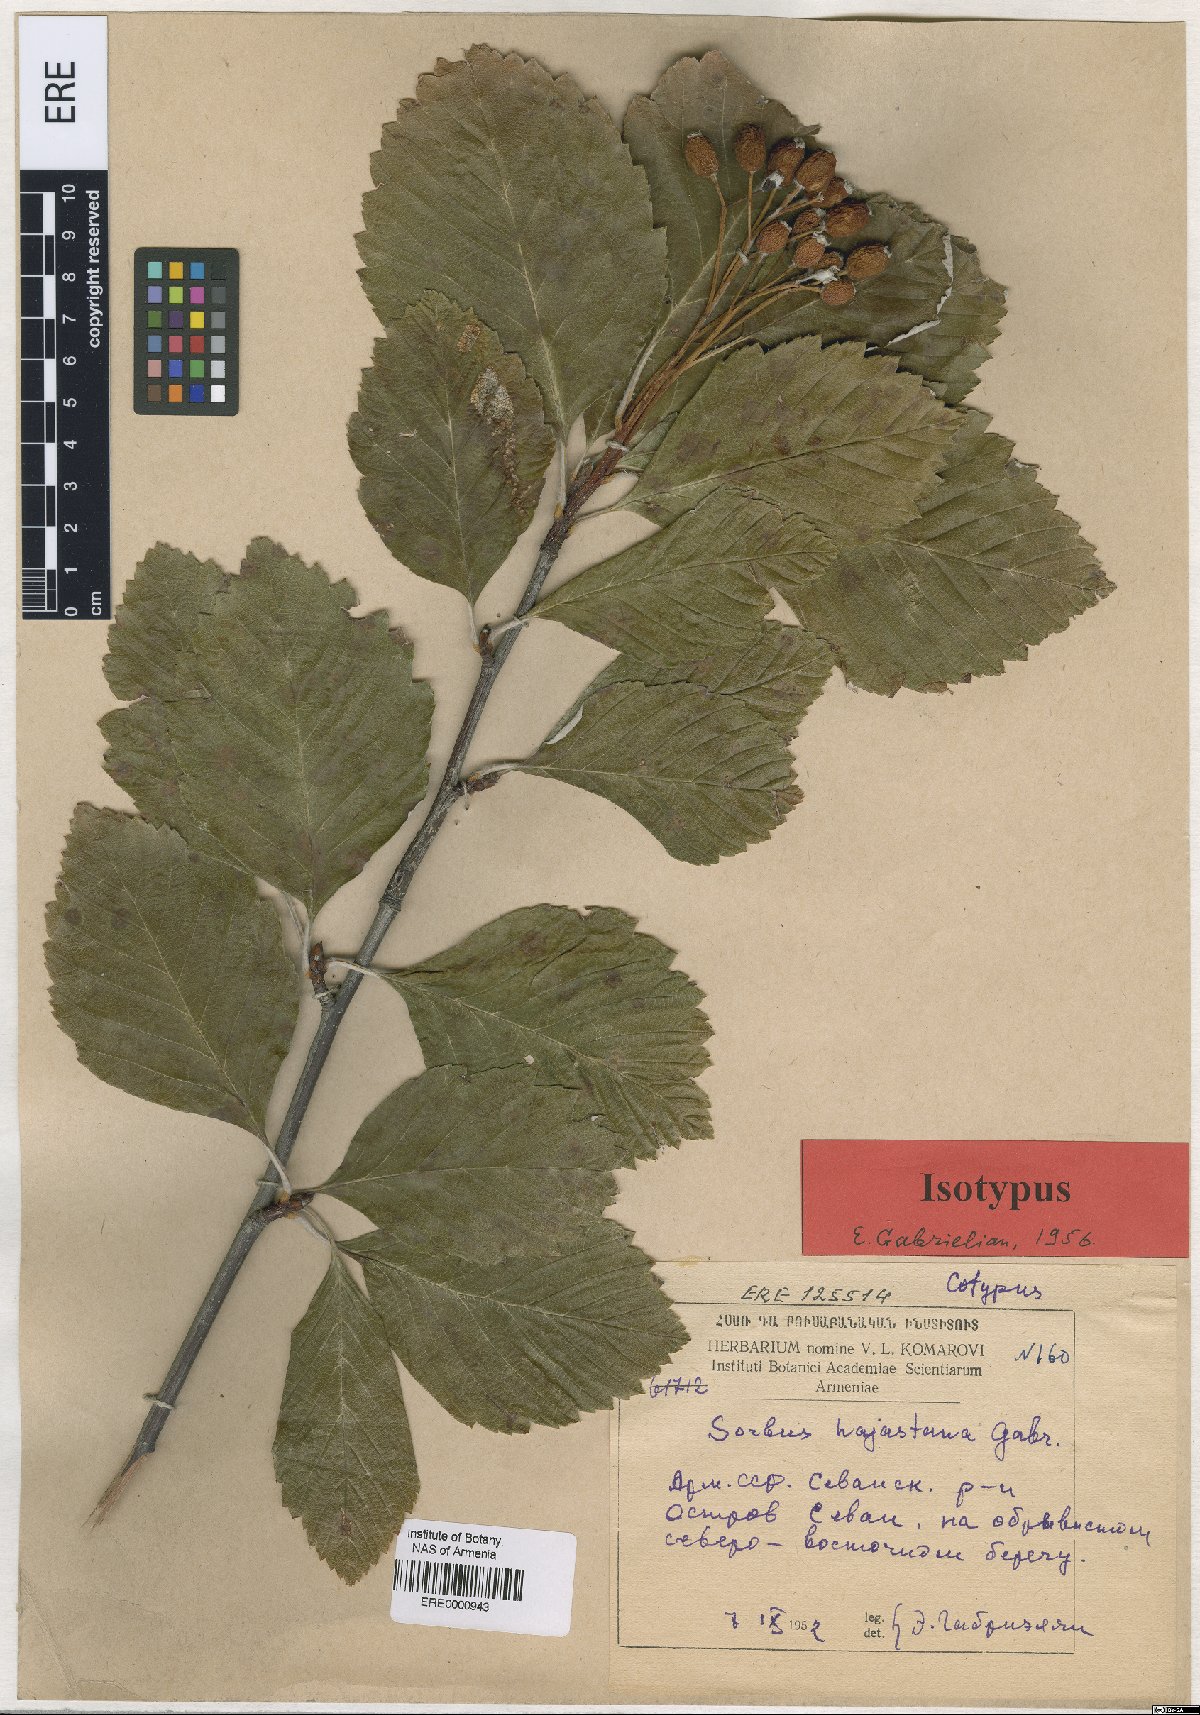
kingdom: Plantae
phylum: Tracheophyta
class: Magnoliopsida
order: Rosales
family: Rosaceae
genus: Sorbus
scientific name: Sorbus hajastana
